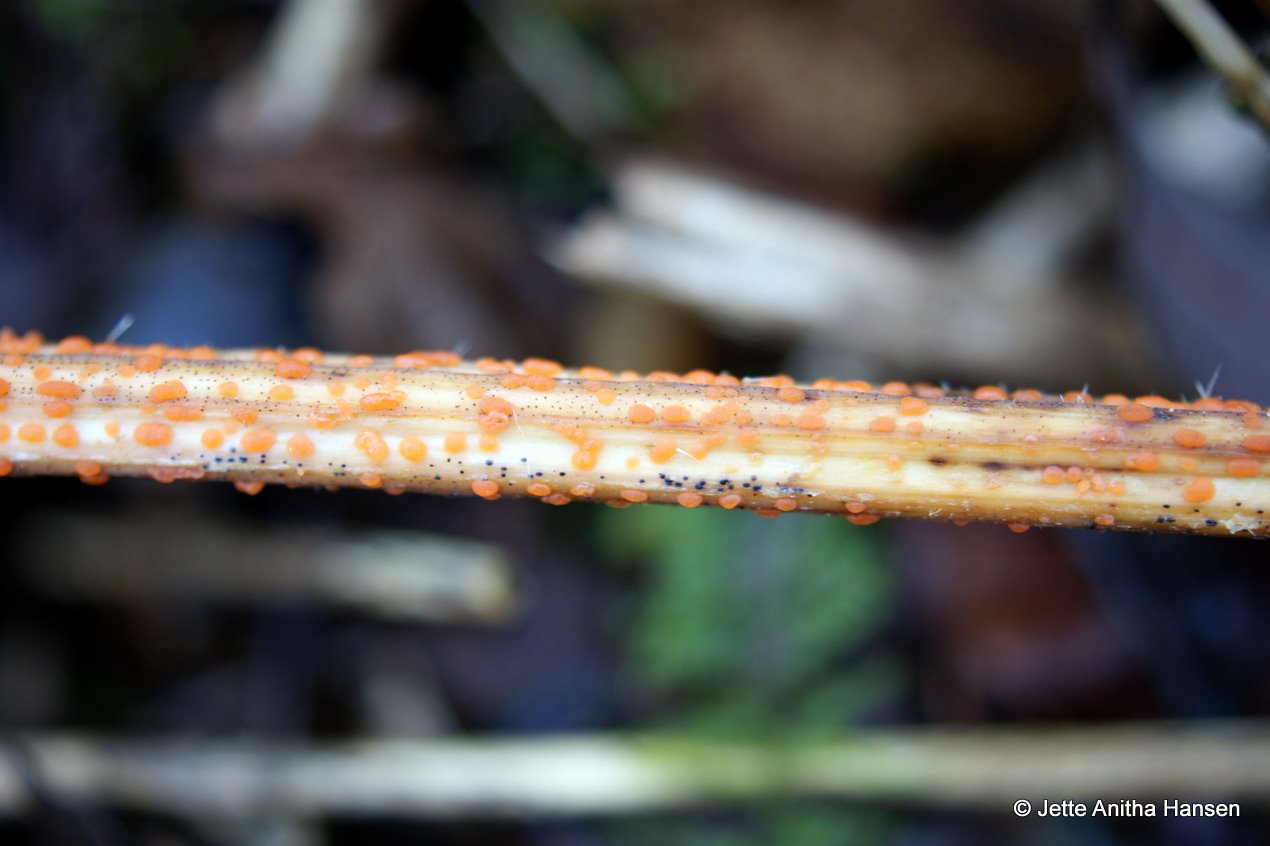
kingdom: Fungi
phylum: Ascomycota
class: Leotiomycetes
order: Helotiales
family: Calloriaceae
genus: Calloria
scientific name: Calloria urticae
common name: nælde-orangeskive
